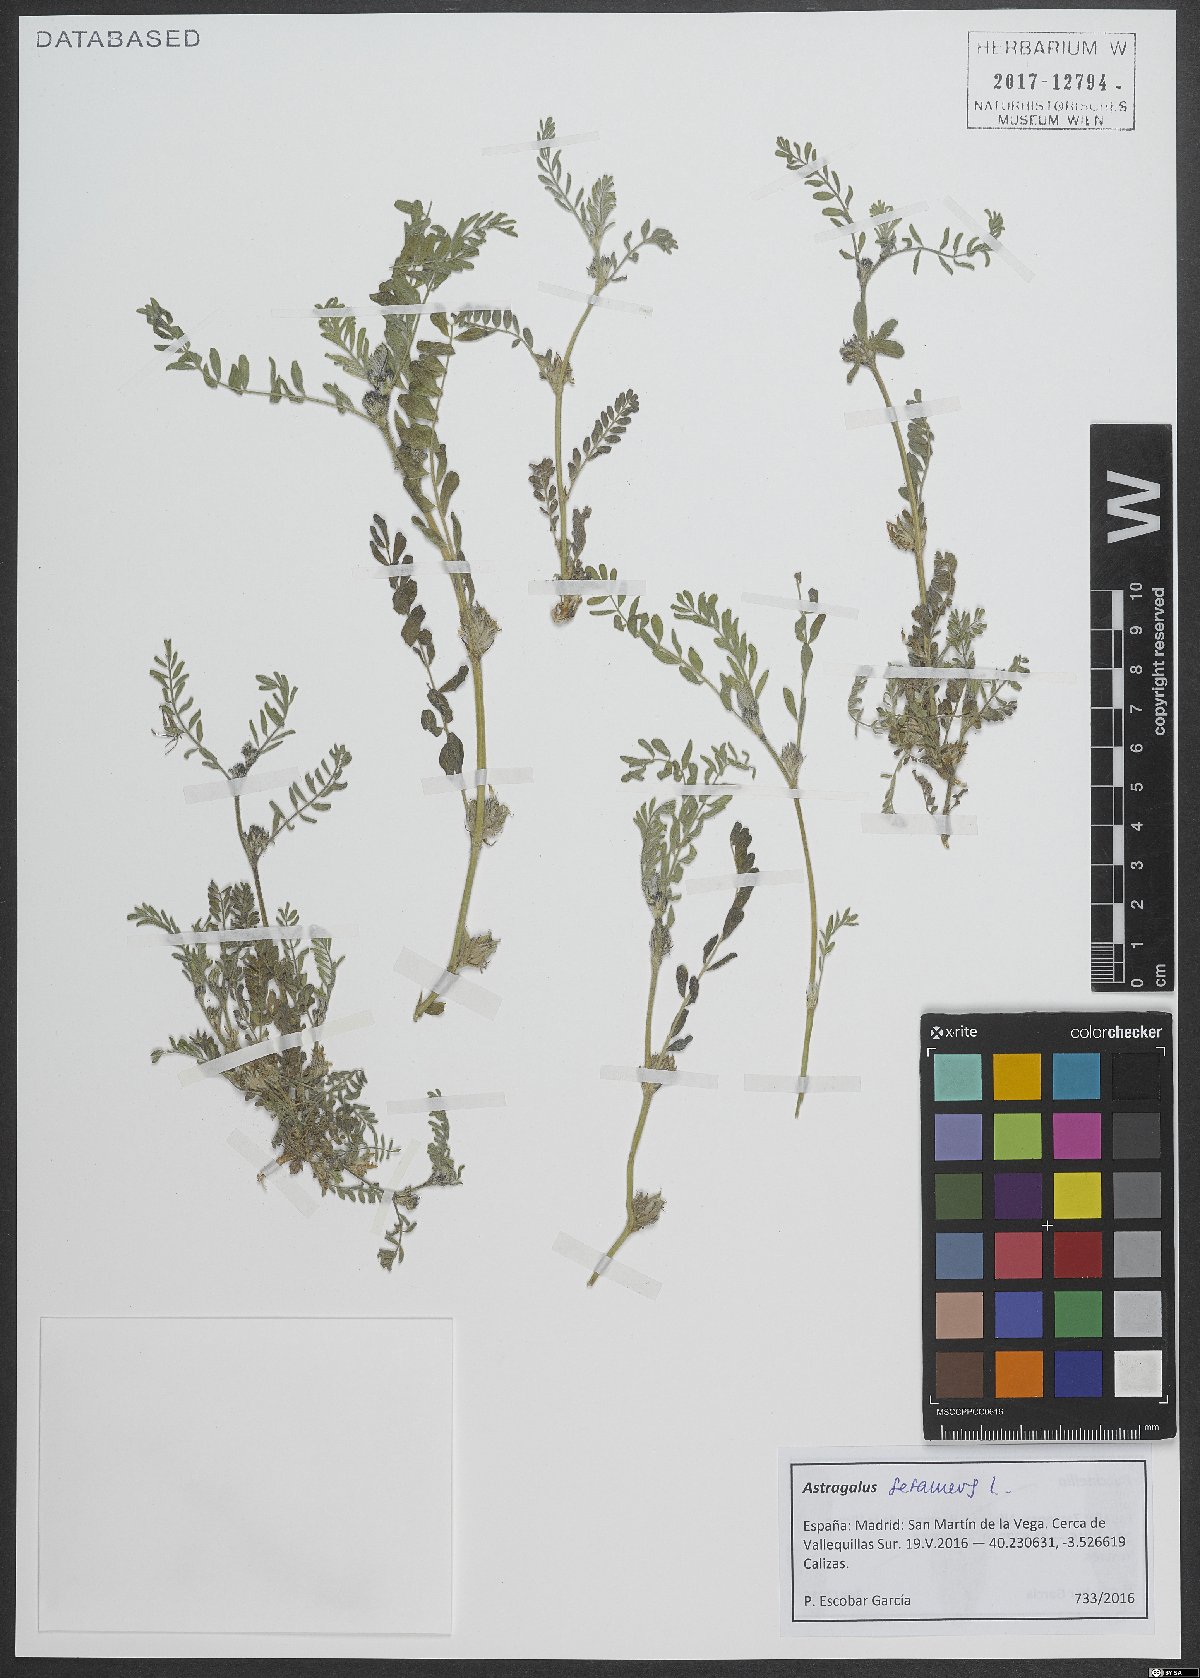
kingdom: Plantae
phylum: Tracheophyta
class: Magnoliopsida
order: Fabales
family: Fabaceae
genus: Astragalus
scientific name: Astragalus sesameus
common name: Purple milk-vetch
